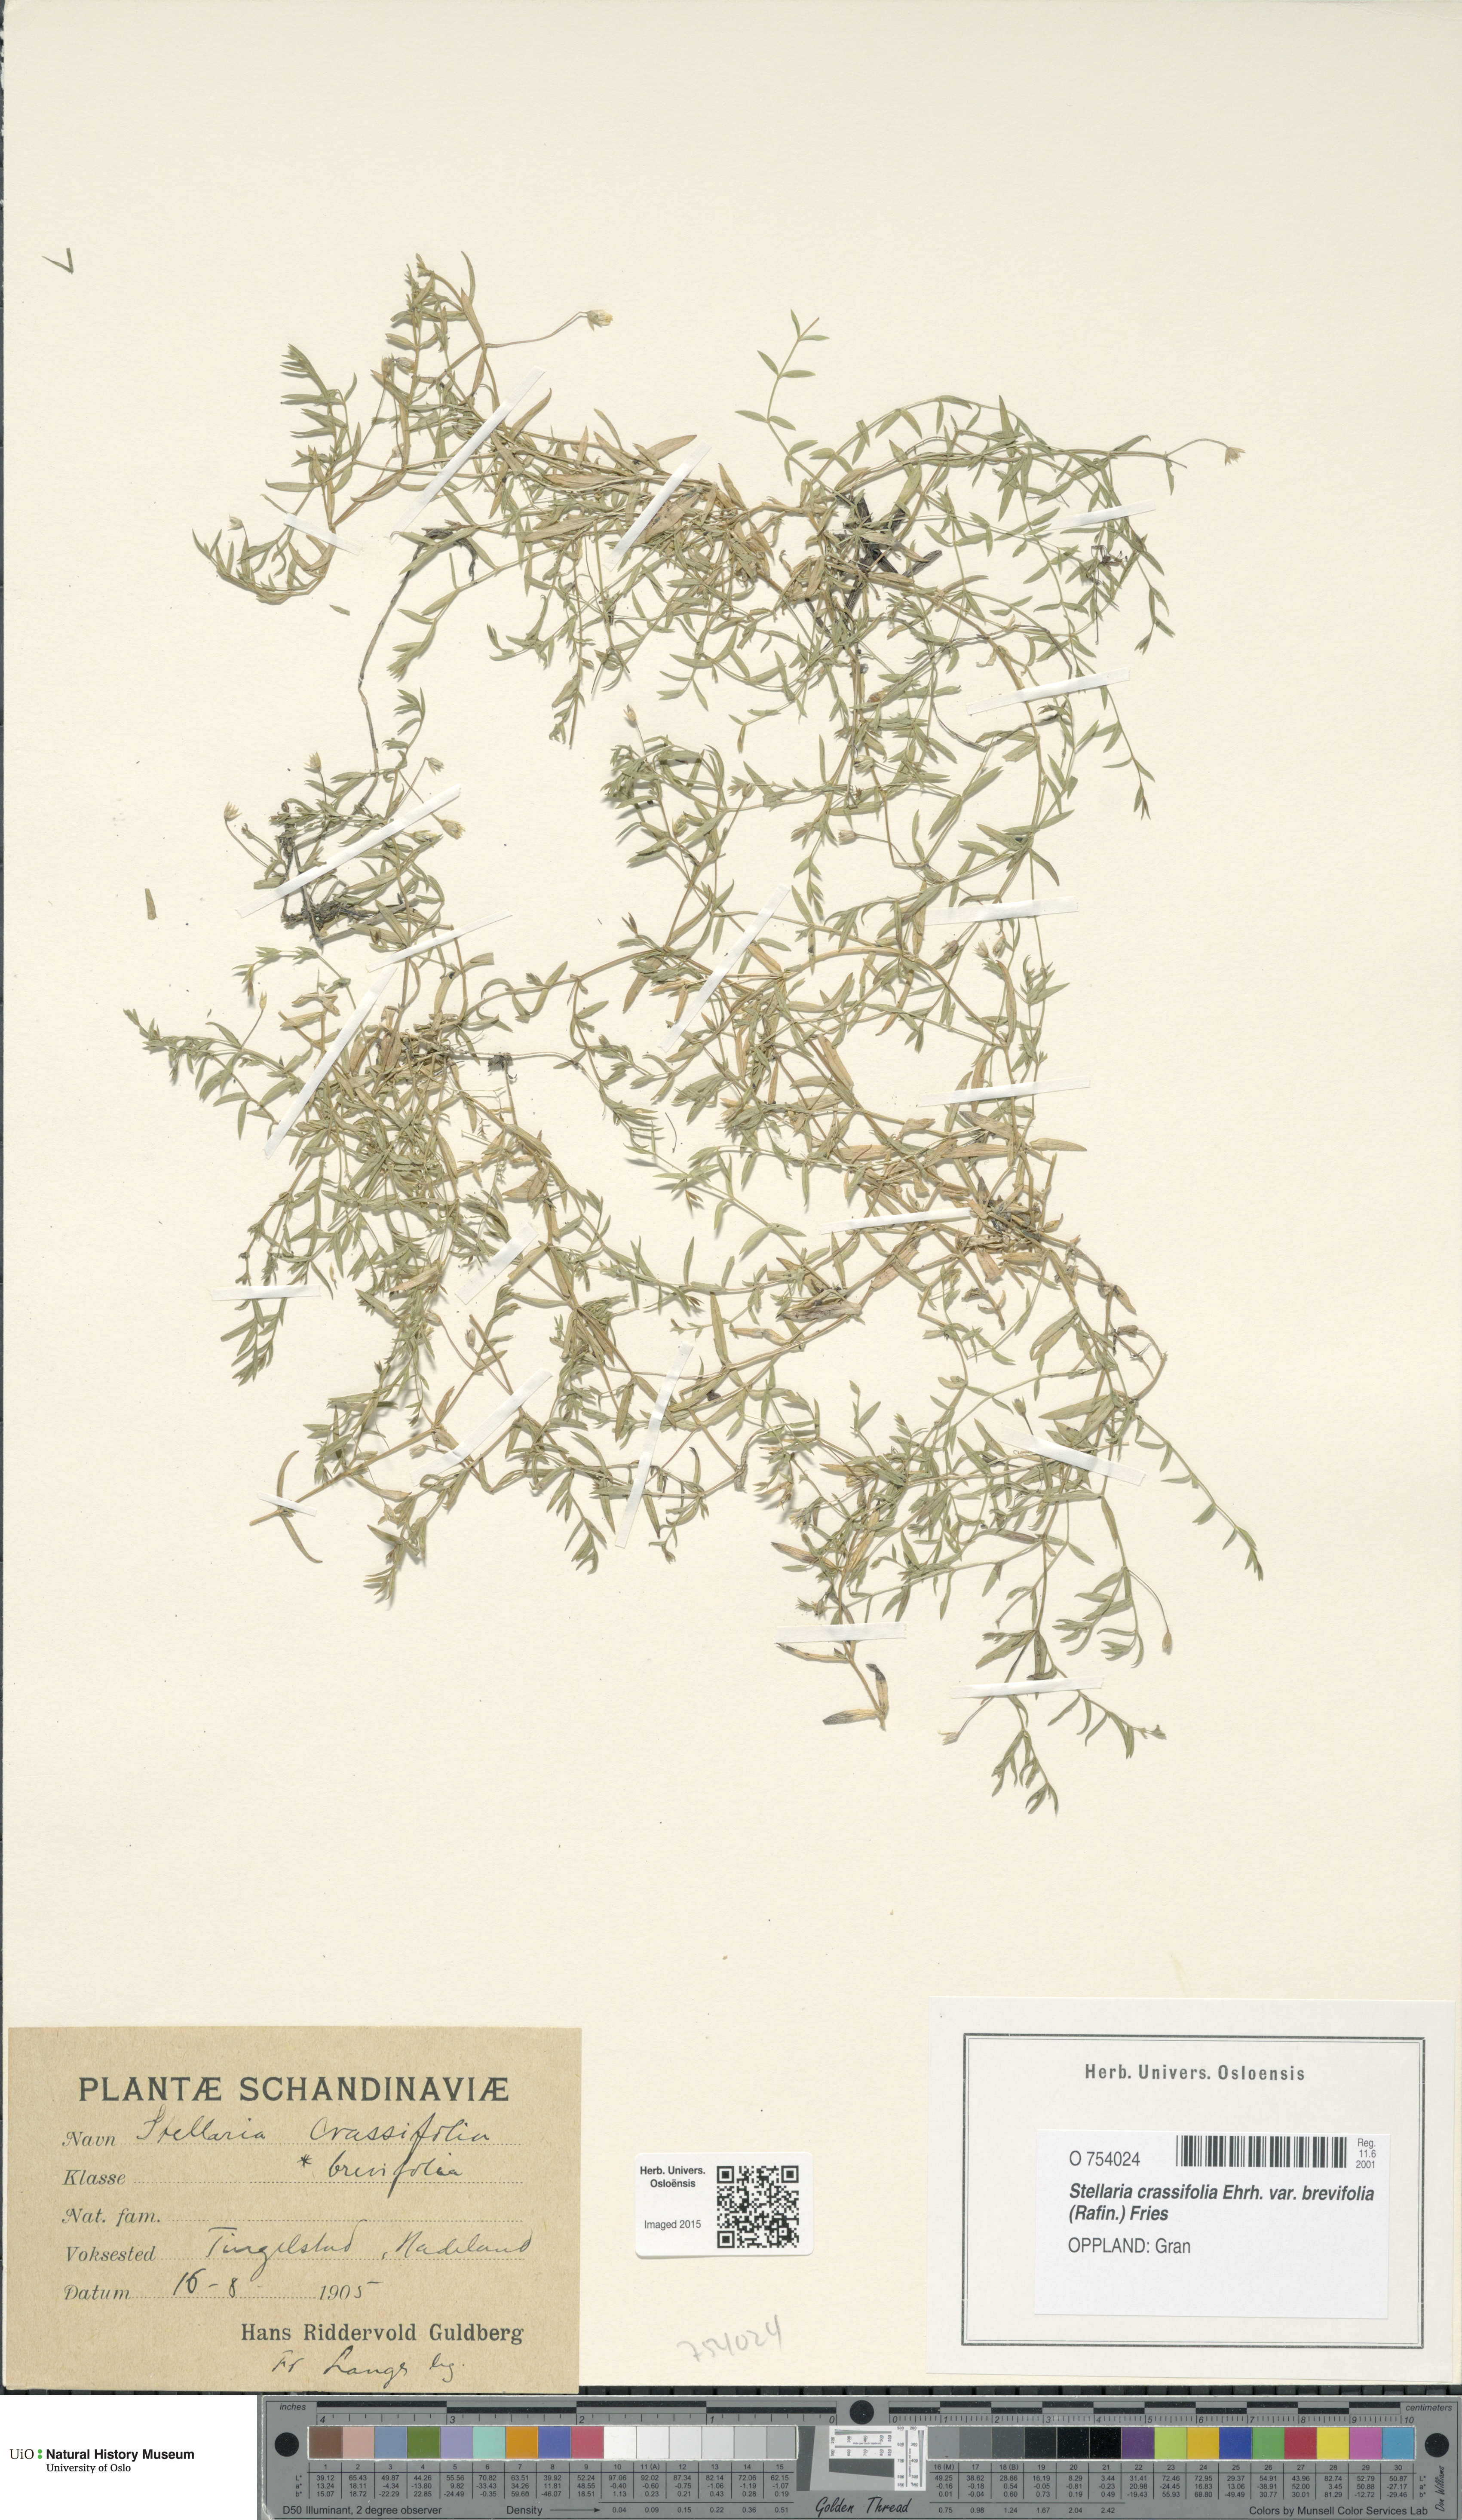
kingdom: Plantae
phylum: Tracheophyta
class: Magnoliopsida
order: Caryophyllales
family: Caryophyllaceae
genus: Stellaria
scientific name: Stellaria crassifolia
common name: Fleshy starwort
